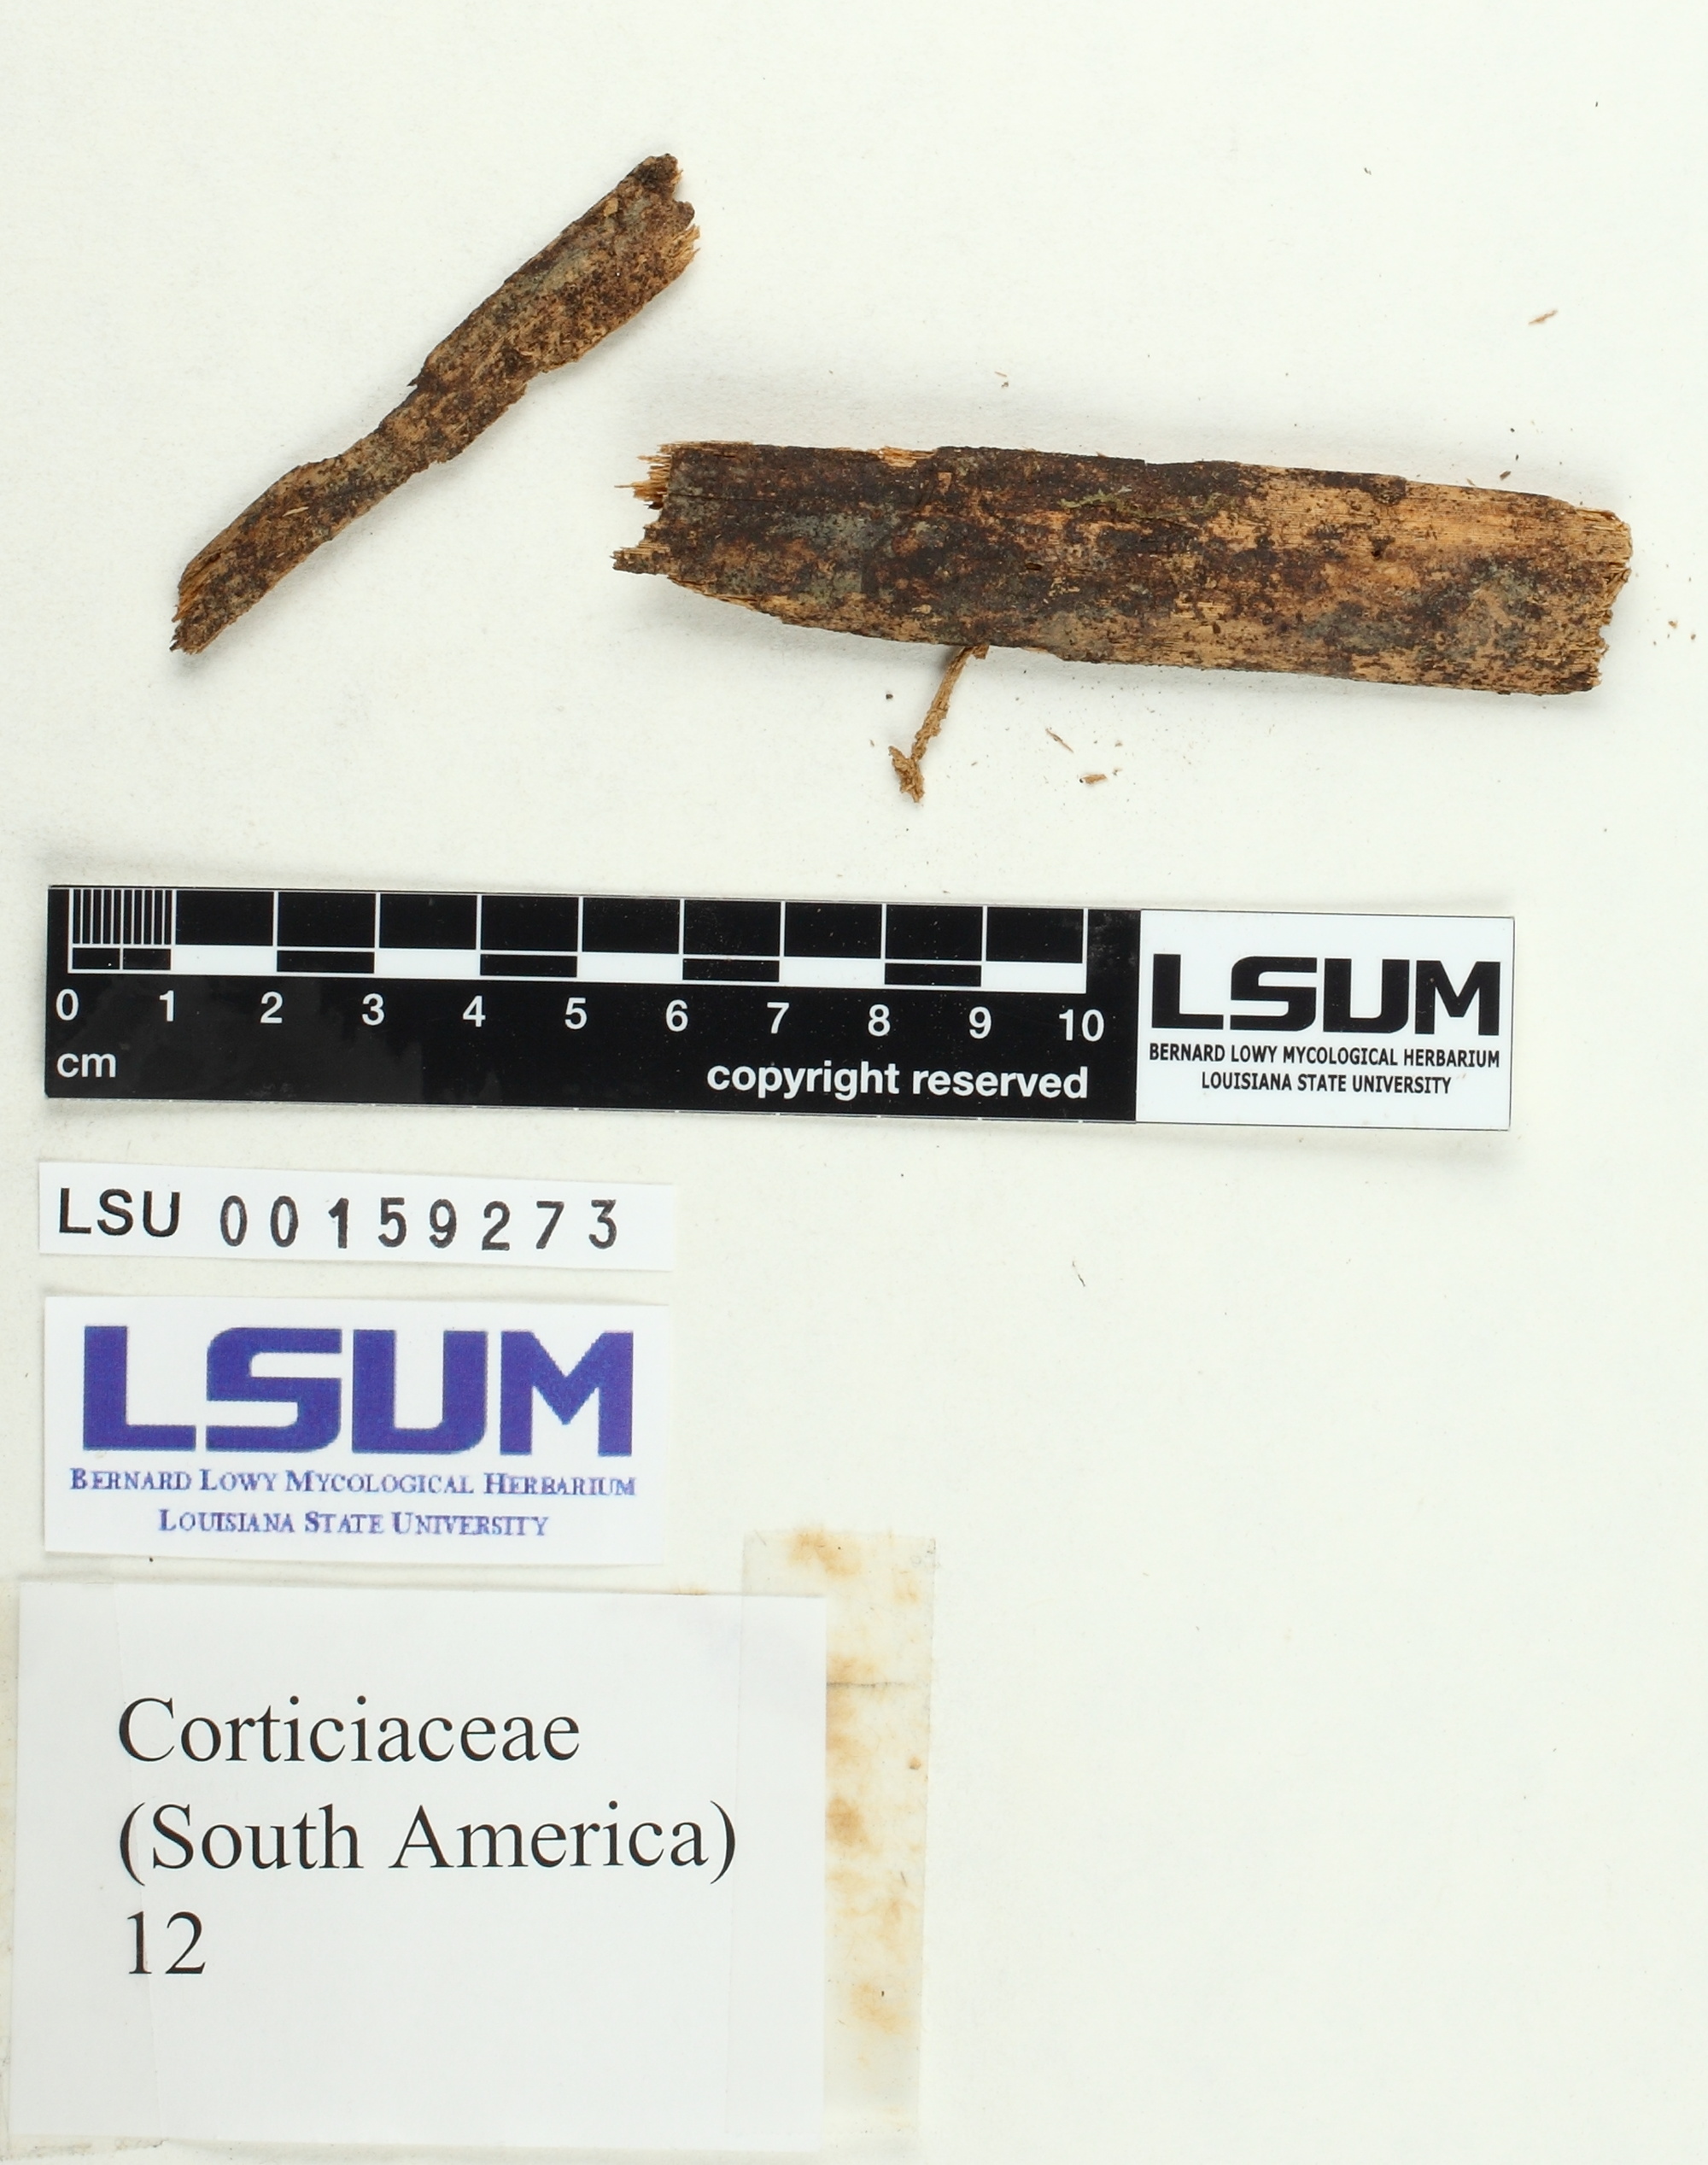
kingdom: Fungi
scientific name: Fungi
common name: Fungi
